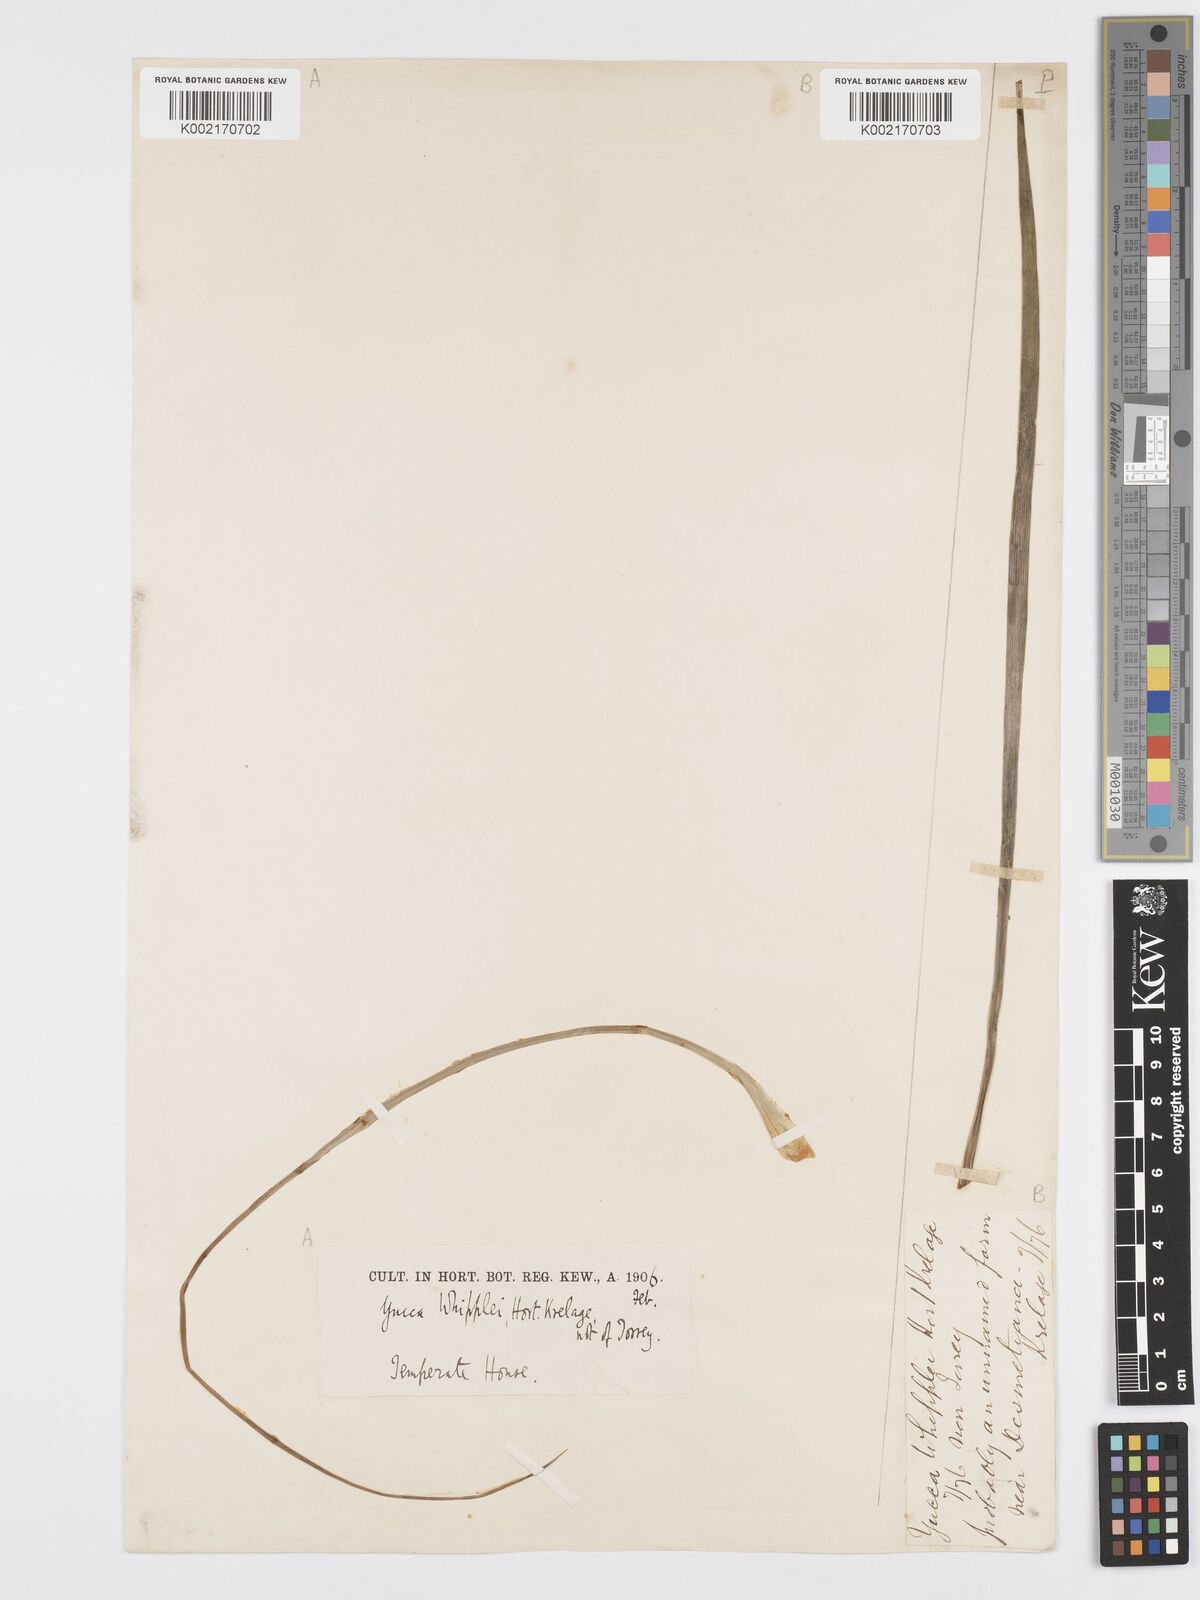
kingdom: Plantae
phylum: Tracheophyta
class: Liliopsida
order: Asparagales
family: Asparagaceae
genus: Hesperoyucca
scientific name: Hesperoyucca whipplei
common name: Our lord's-candle
